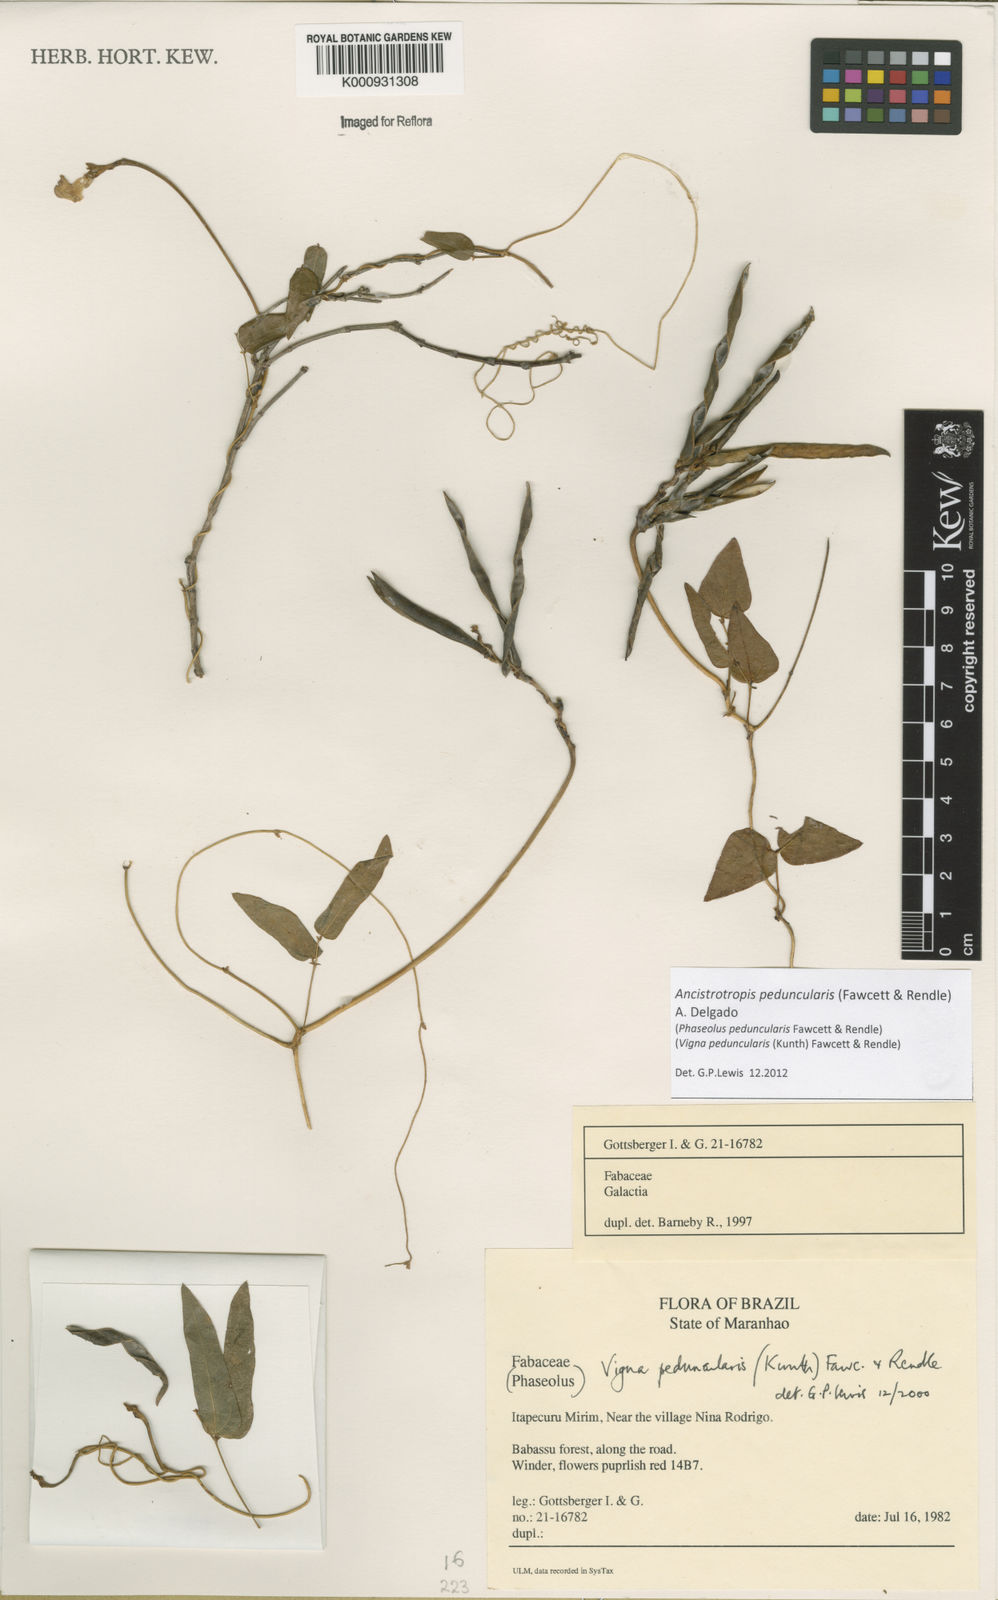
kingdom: Plantae
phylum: Tracheophyta
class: Magnoliopsida
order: Fabales
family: Fabaceae
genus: Ancistrotropis
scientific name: Ancistrotropis peduncularis
